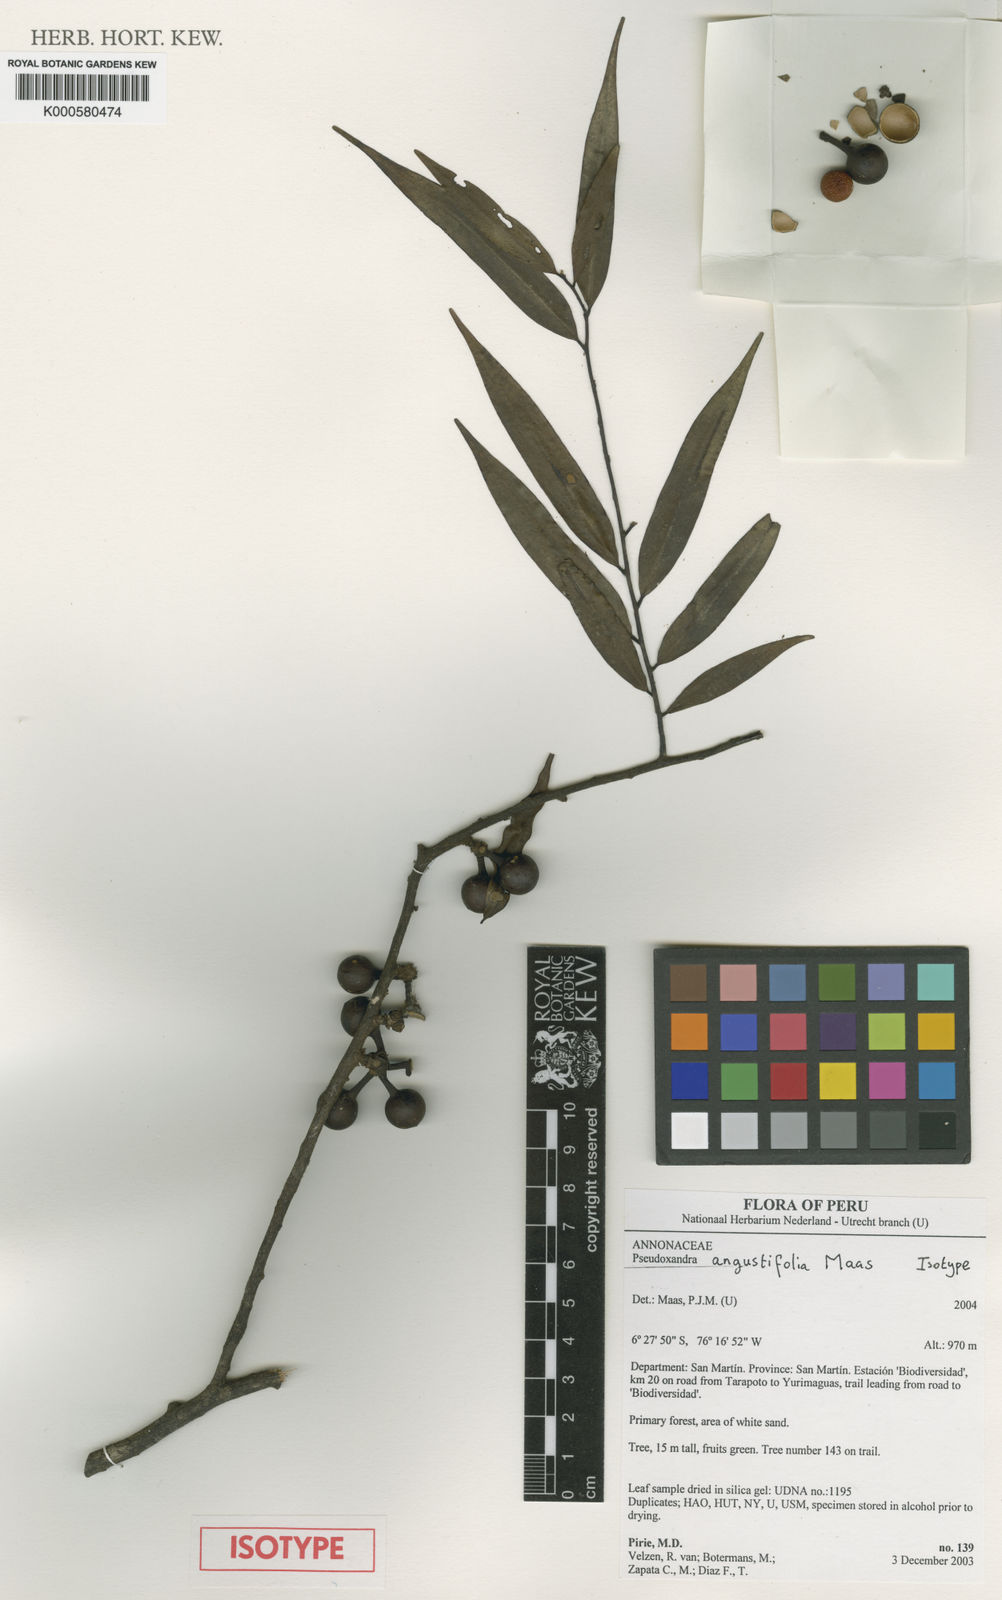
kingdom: Plantae
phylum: Tracheophyta
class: Magnoliopsida
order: Magnoliales
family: Annonaceae
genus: Pseudoxandra
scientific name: Pseudoxandra angustifolia
